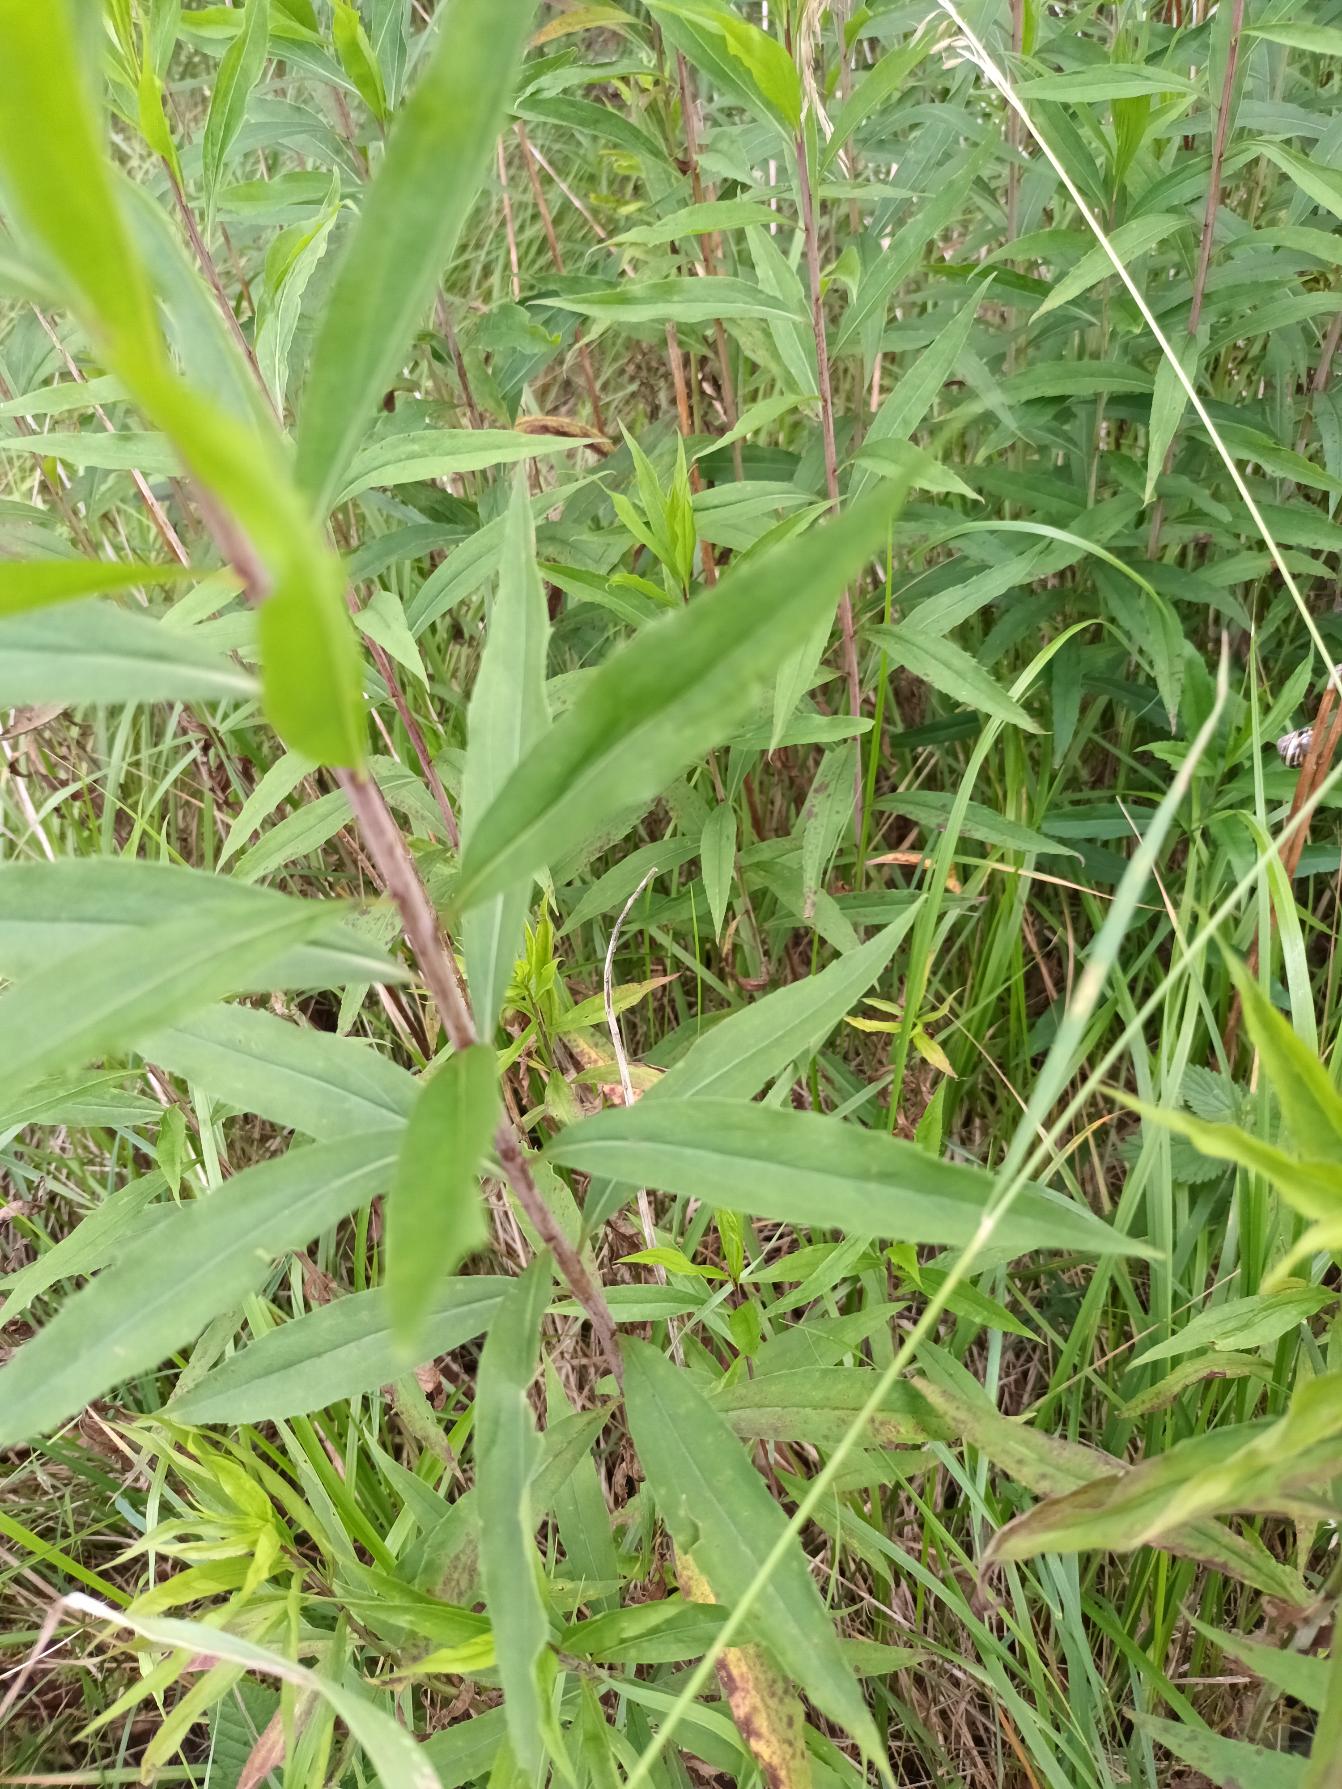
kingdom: Plantae
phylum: Tracheophyta
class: Magnoliopsida
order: Asterales
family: Asteraceae
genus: Solidago
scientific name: Solidago gigantea
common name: Sildig gyldenris
